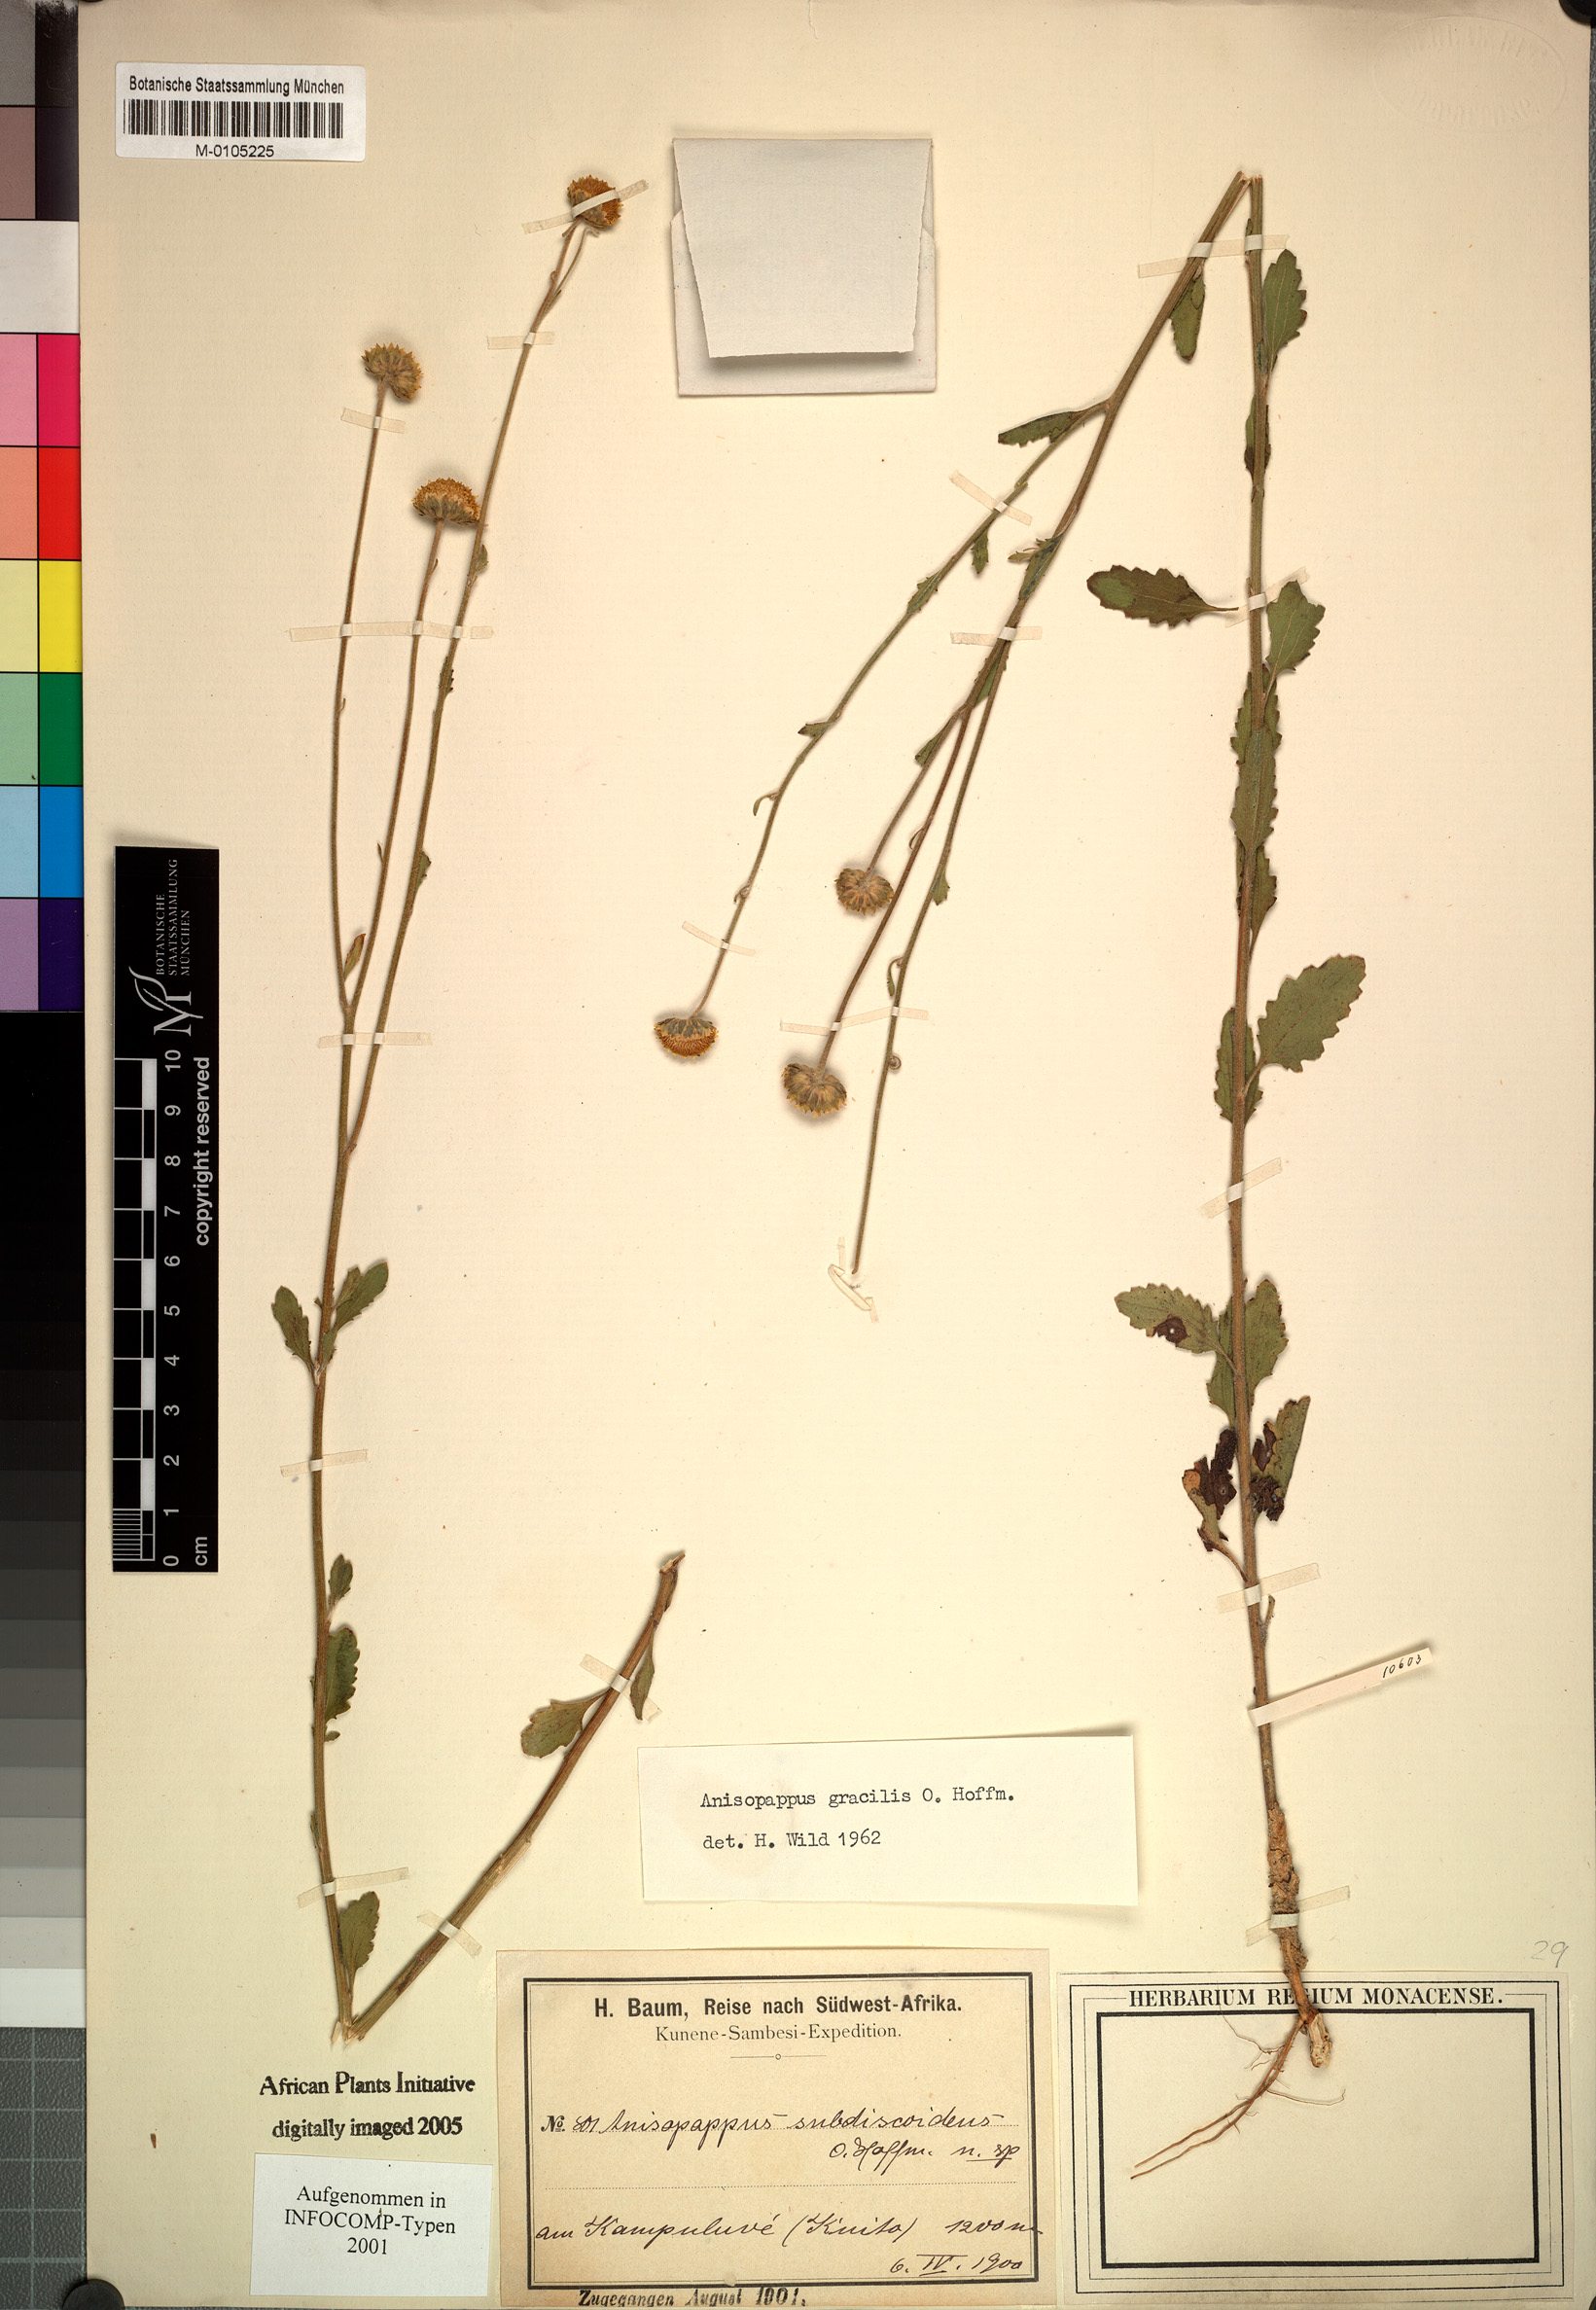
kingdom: Plantae
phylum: Tracheophyta
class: Magnoliopsida
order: Asterales
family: Asteraceae
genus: Anisopappus
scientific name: Anisopappus africanus
